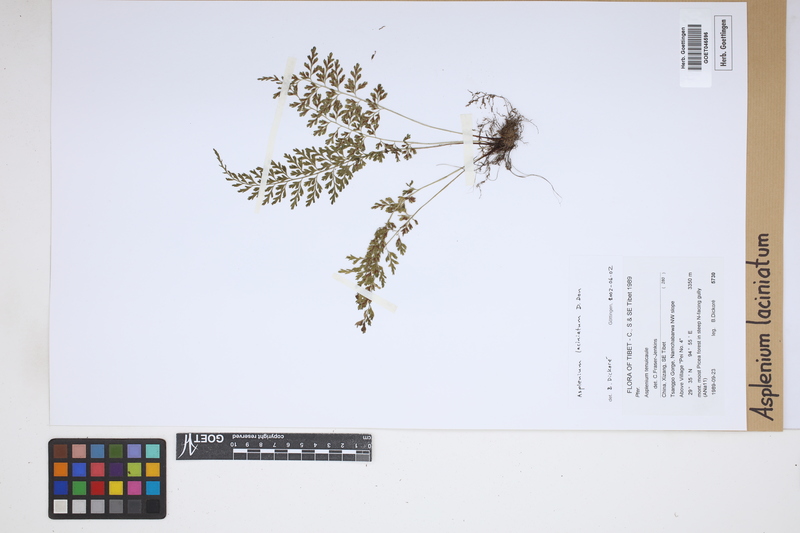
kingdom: Plantae
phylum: Tracheophyta
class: Polypodiopsida
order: Polypodiales
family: Aspleniaceae
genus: Asplenium
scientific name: Asplenium laciniatum
